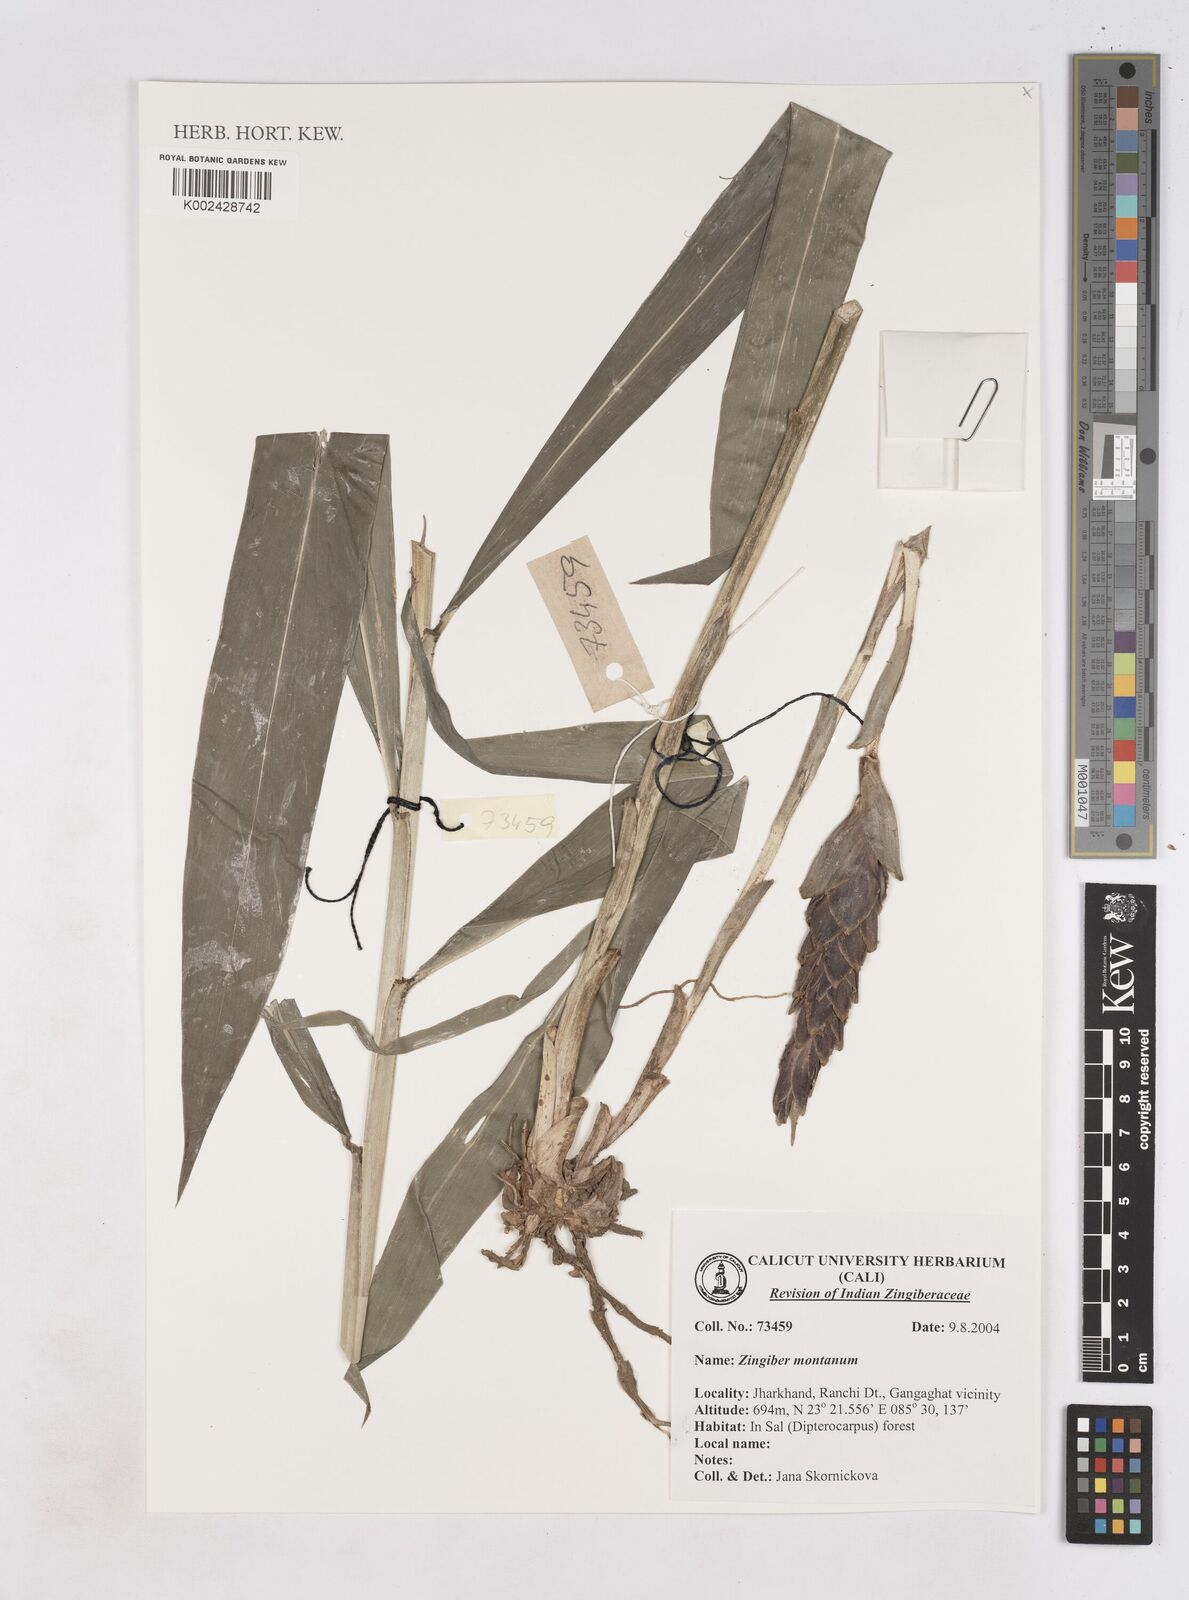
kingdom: Plantae
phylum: Tracheophyta
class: Liliopsida
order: Zingiberales
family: Zingiberaceae
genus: Zingiber
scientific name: Zingiber montanum
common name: Bengal ginger
